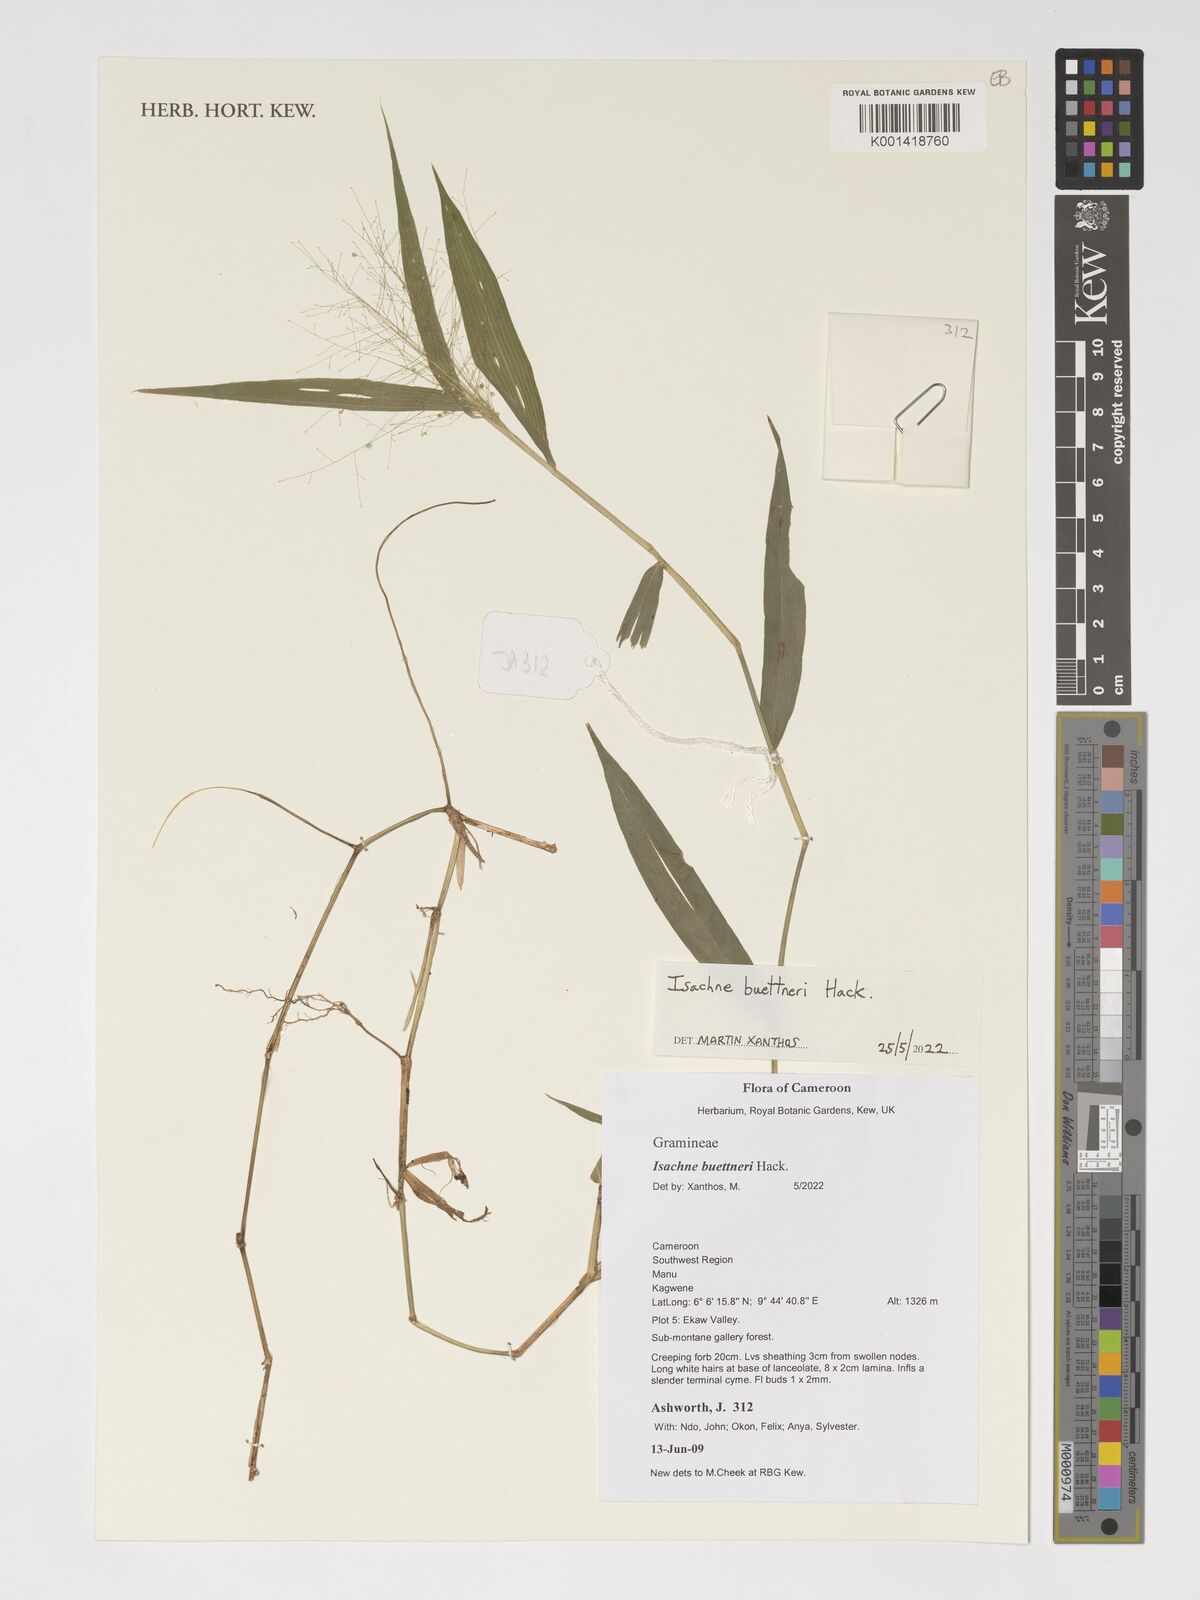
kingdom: Plantae
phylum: Tracheophyta
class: Liliopsida
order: Poales
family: Poaceae
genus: Isachne
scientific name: Isachne albens
